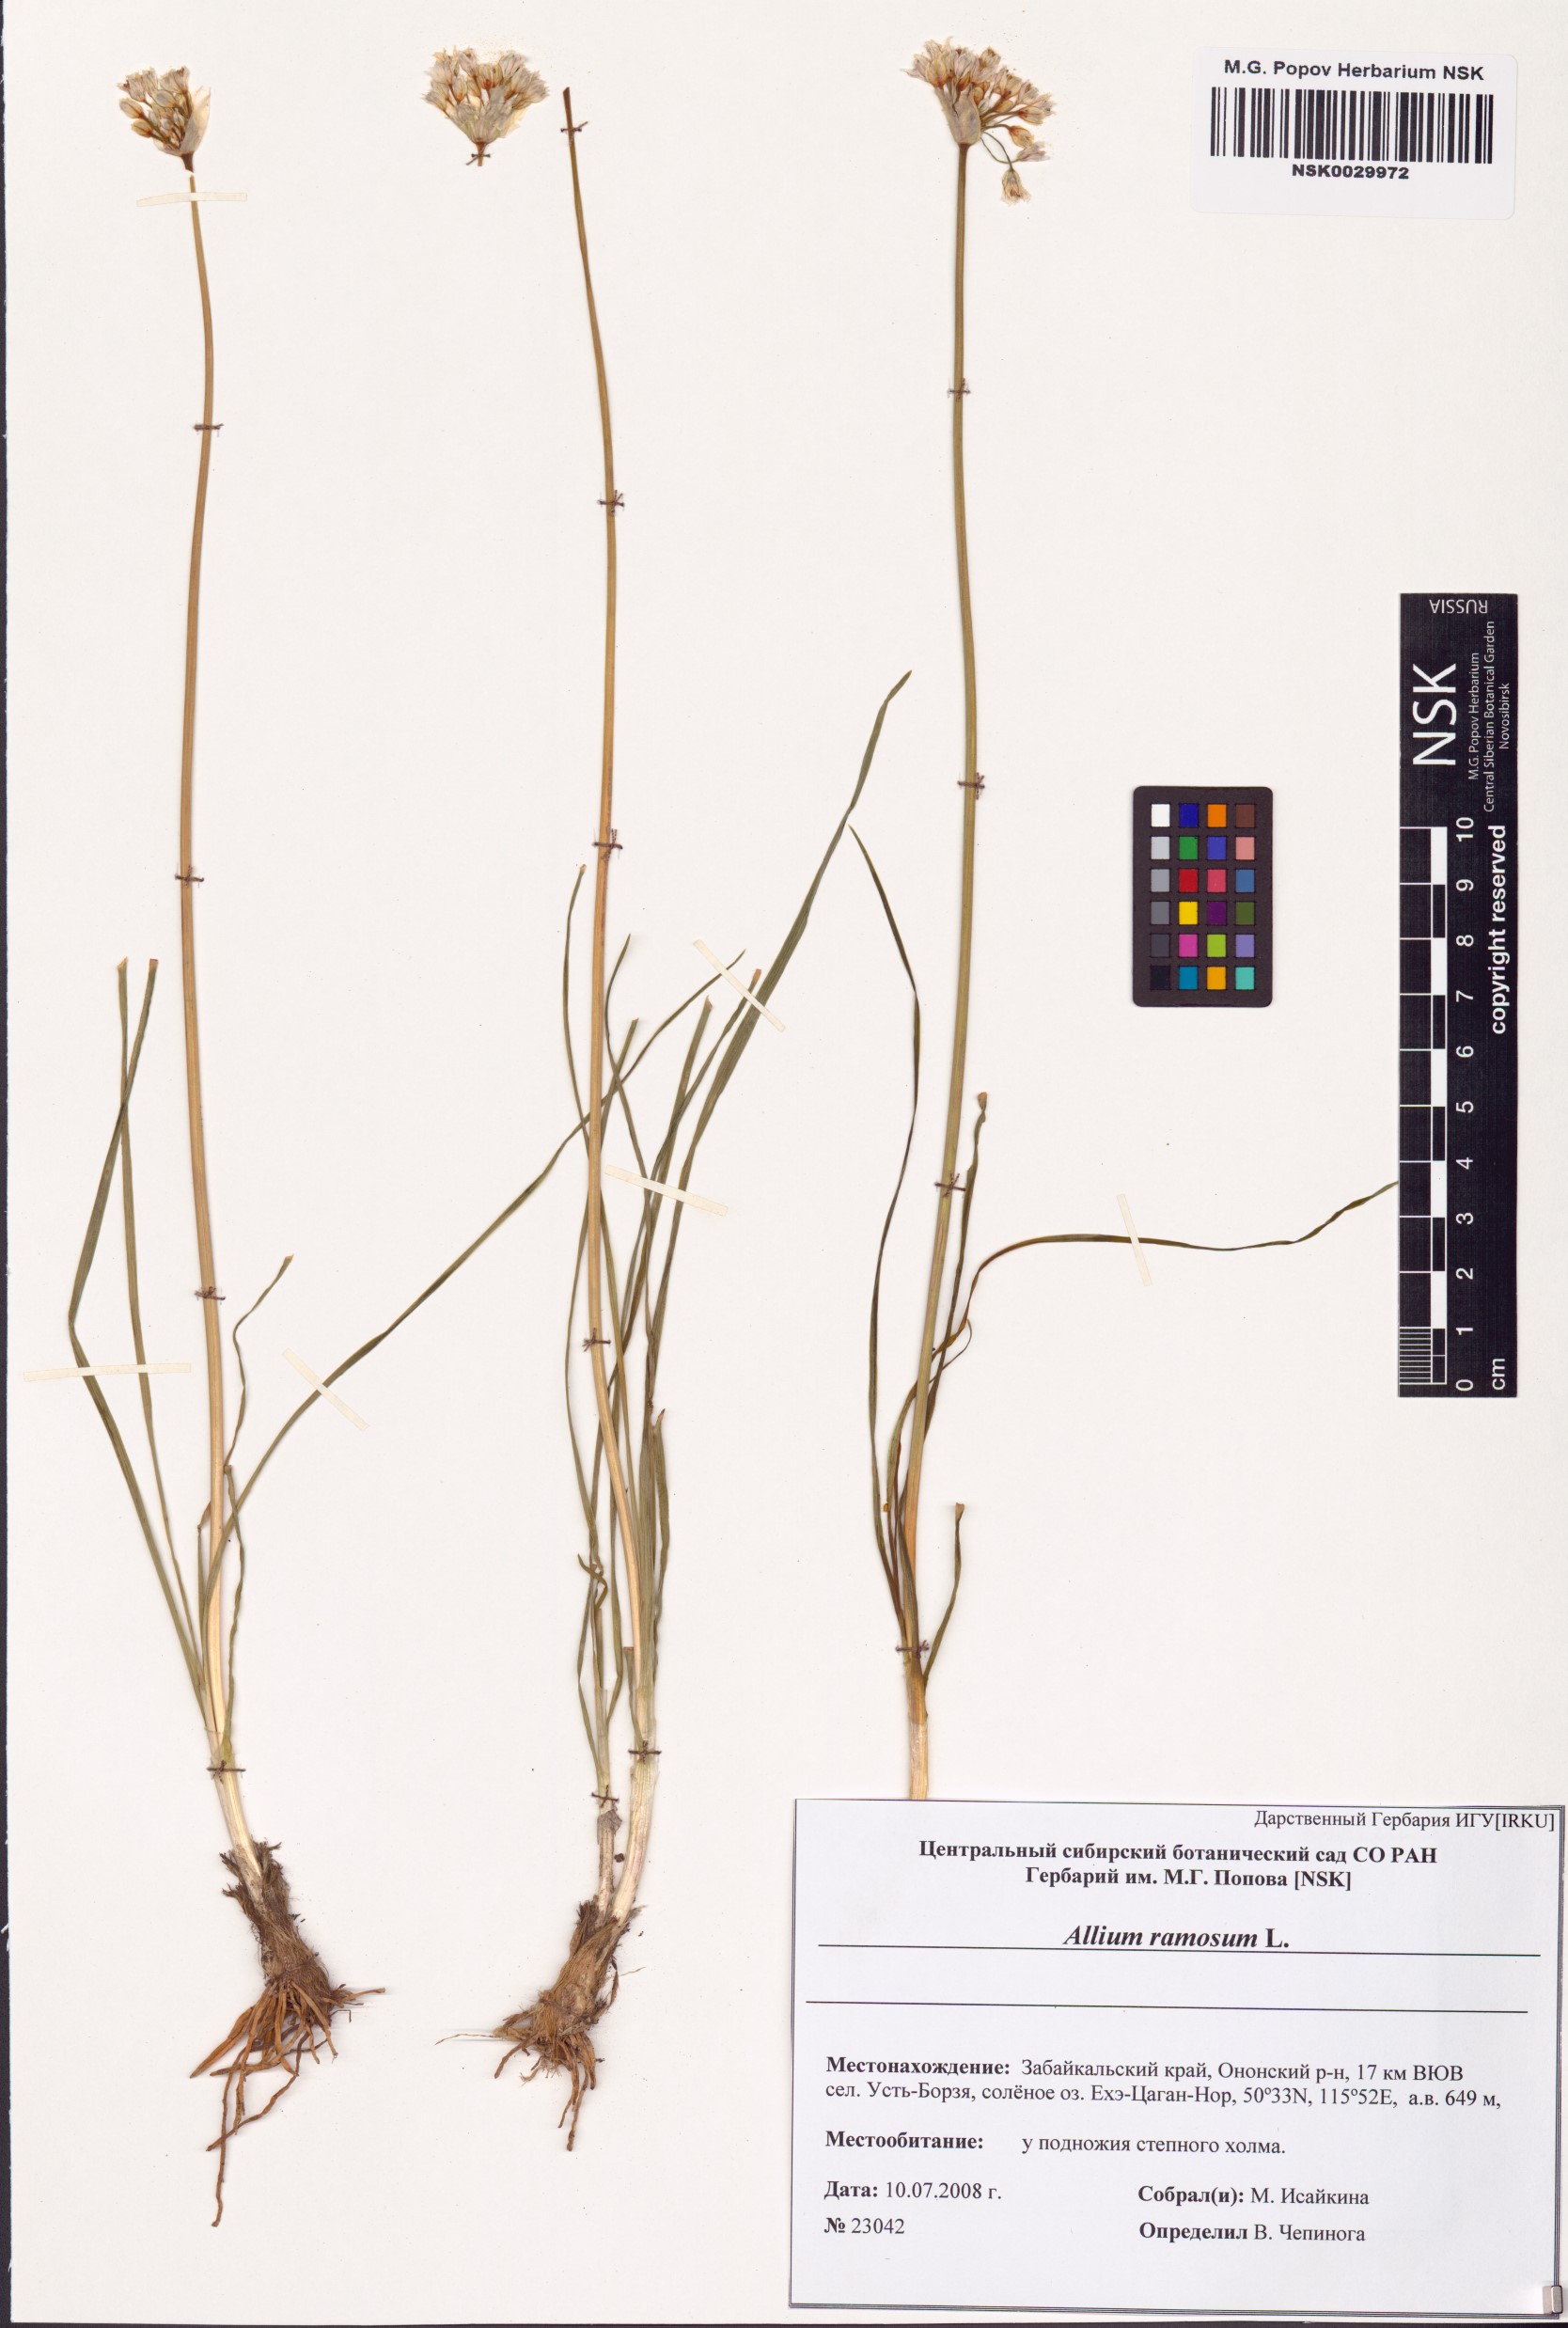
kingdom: Plantae
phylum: Tracheophyta
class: Liliopsida
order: Asparagales
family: Amaryllidaceae
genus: Allium
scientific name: Allium ramosum
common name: Fragrant garlic
